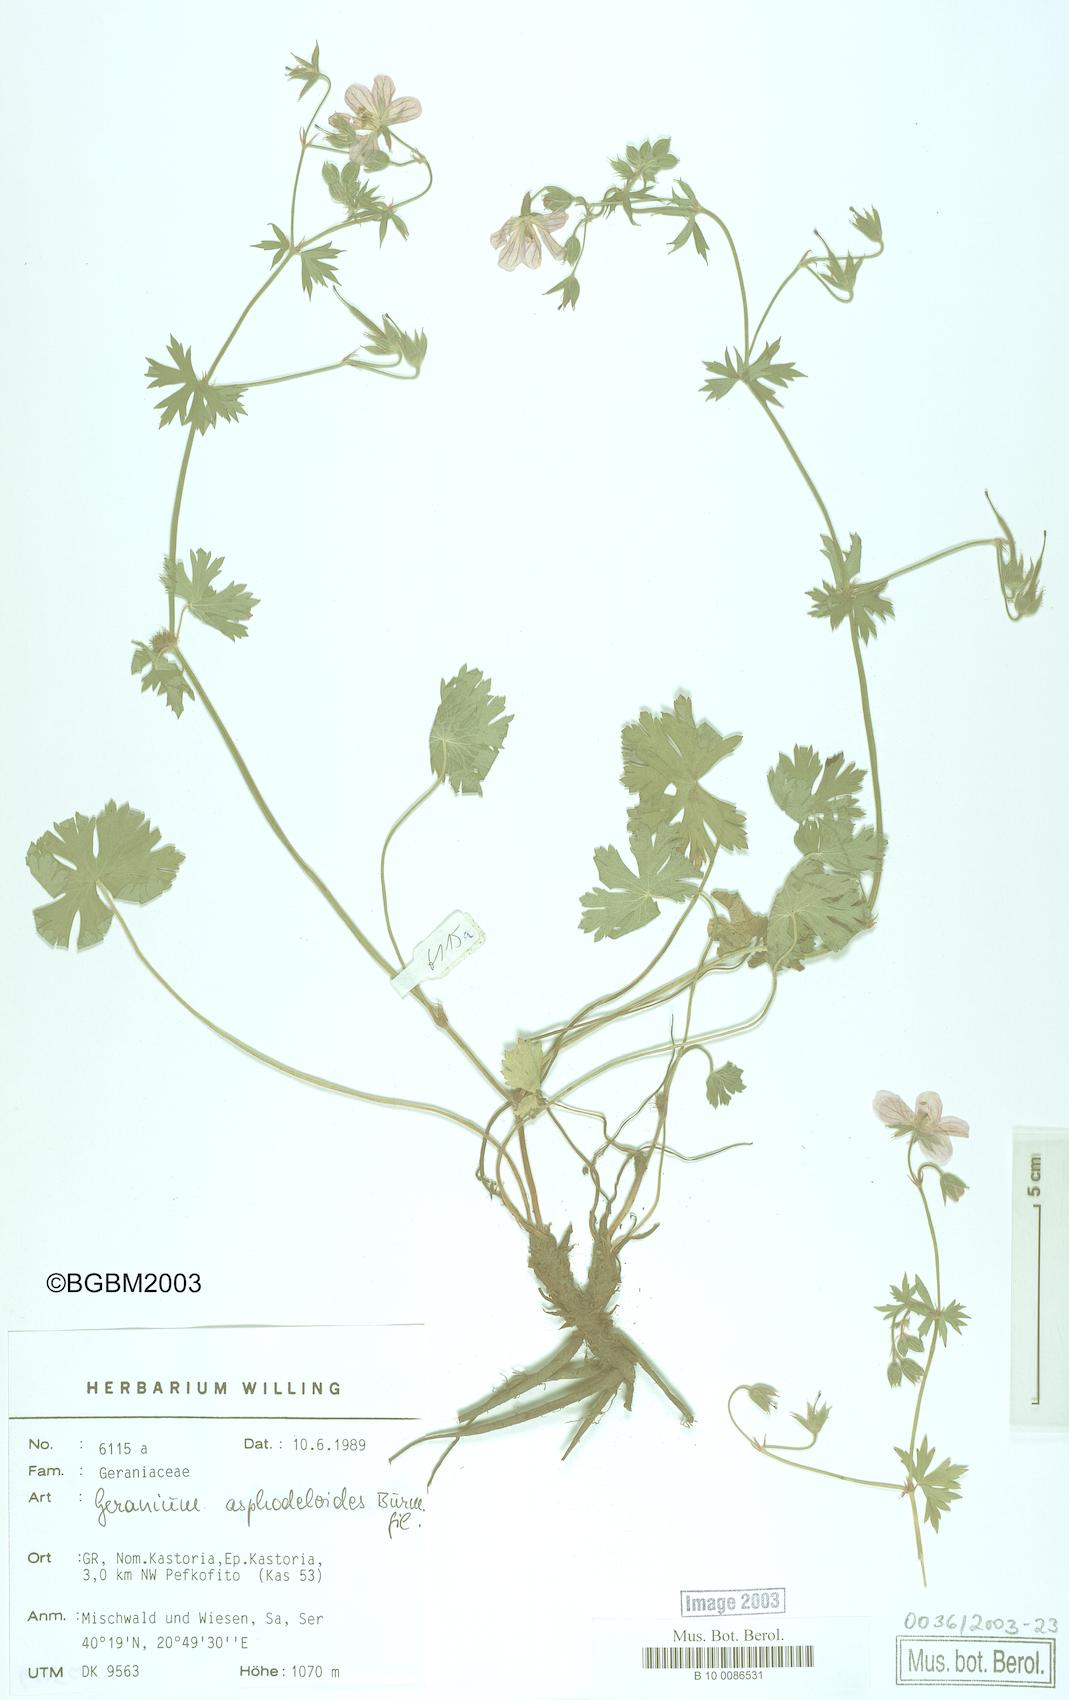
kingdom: Plantae
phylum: Tracheophyta
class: Magnoliopsida
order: Geraniales
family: Geraniaceae
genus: Geranium
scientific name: Geranium asphodeloides
